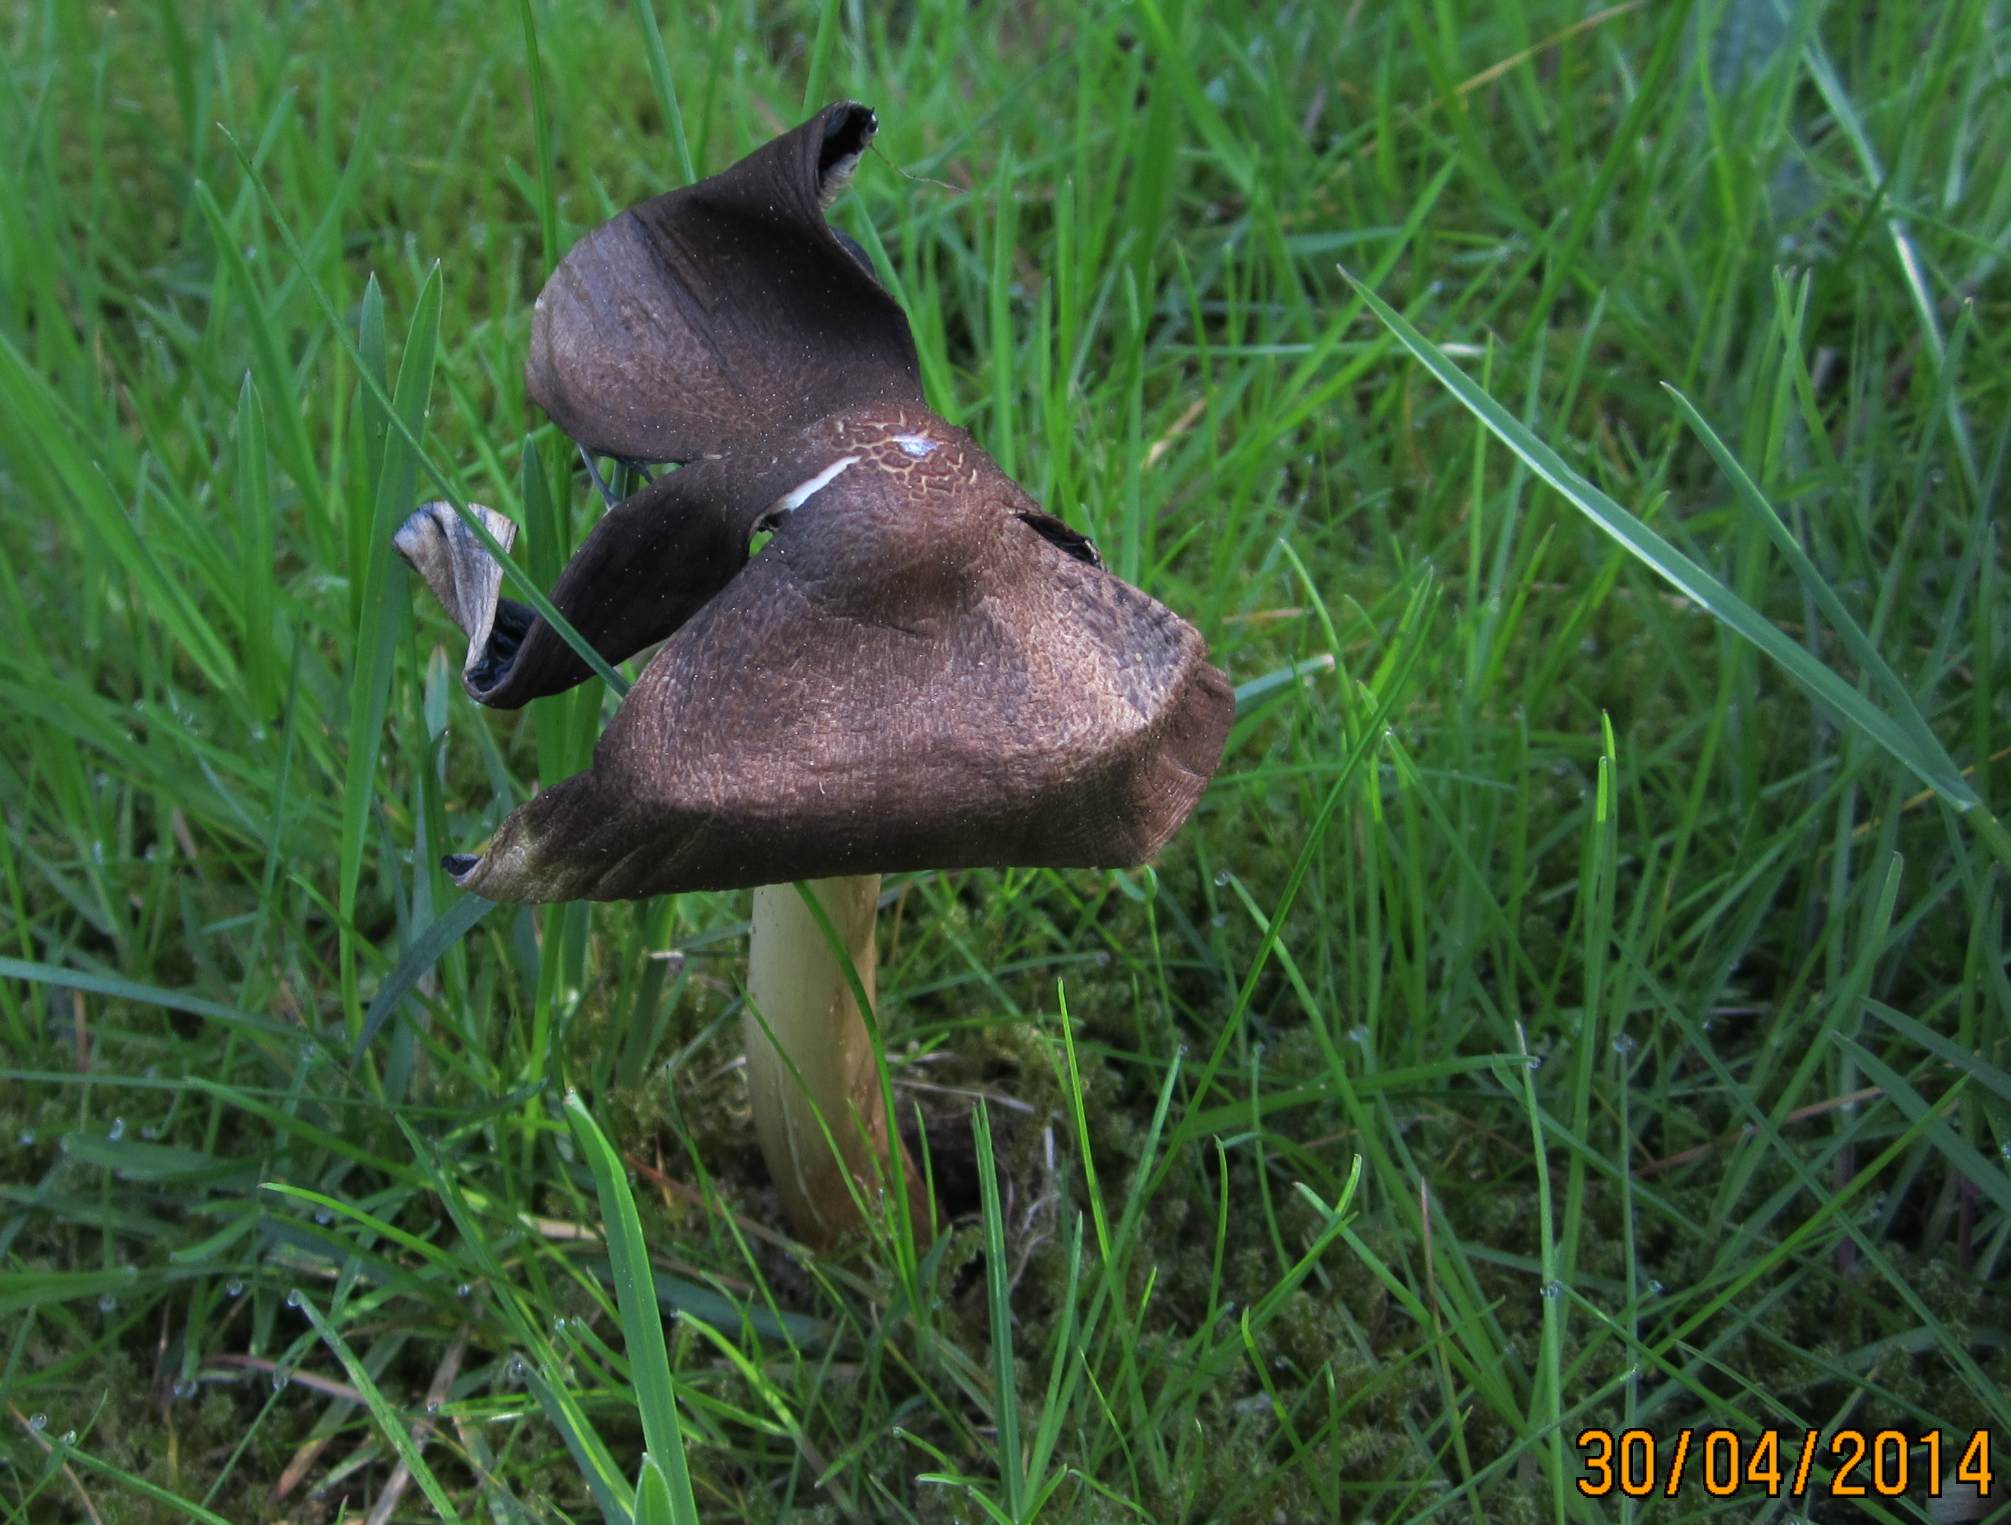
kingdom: Fungi
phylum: Basidiomycota
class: Agaricomycetes
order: Agaricales
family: Psathyrellaceae
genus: Coprinopsis
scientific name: Coprinopsis insignis
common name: stor blækhat
